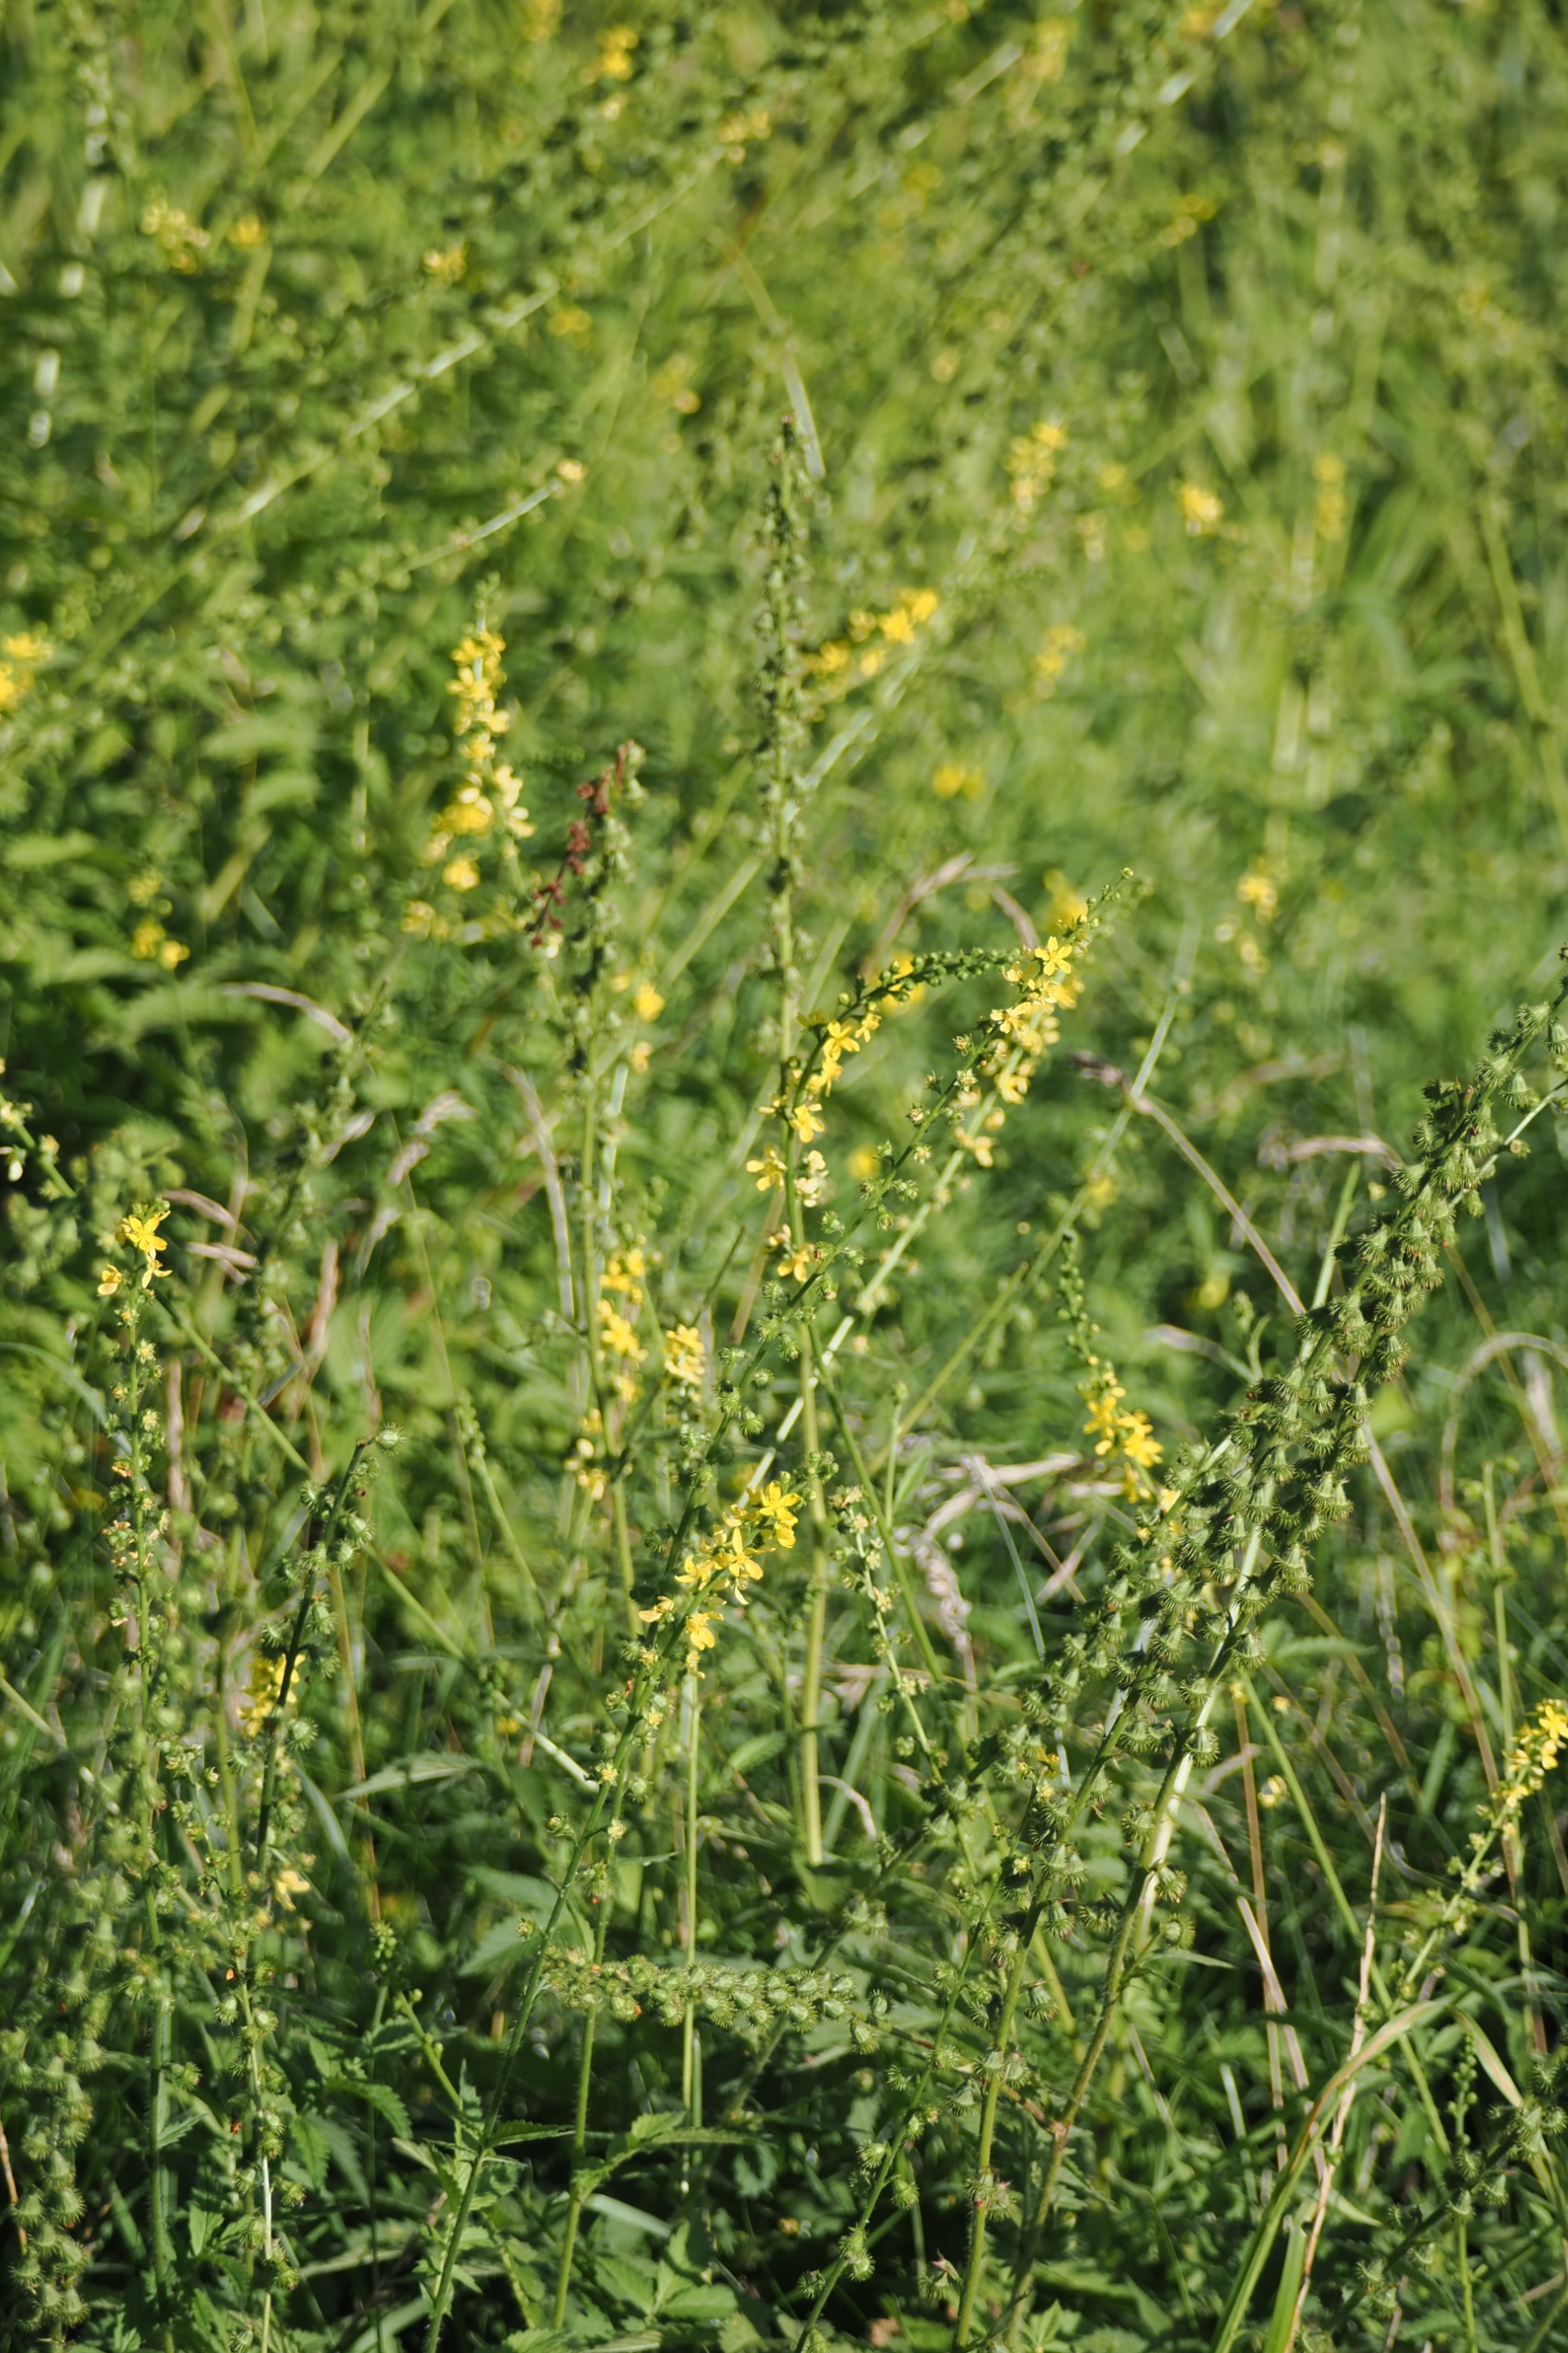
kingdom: Plantae
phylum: Tracheophyta
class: Magnoliopsida
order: Rosales
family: Rosaceae
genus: Agrimonia
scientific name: Agrimonia eupatoria
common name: Almindelig agermåne
